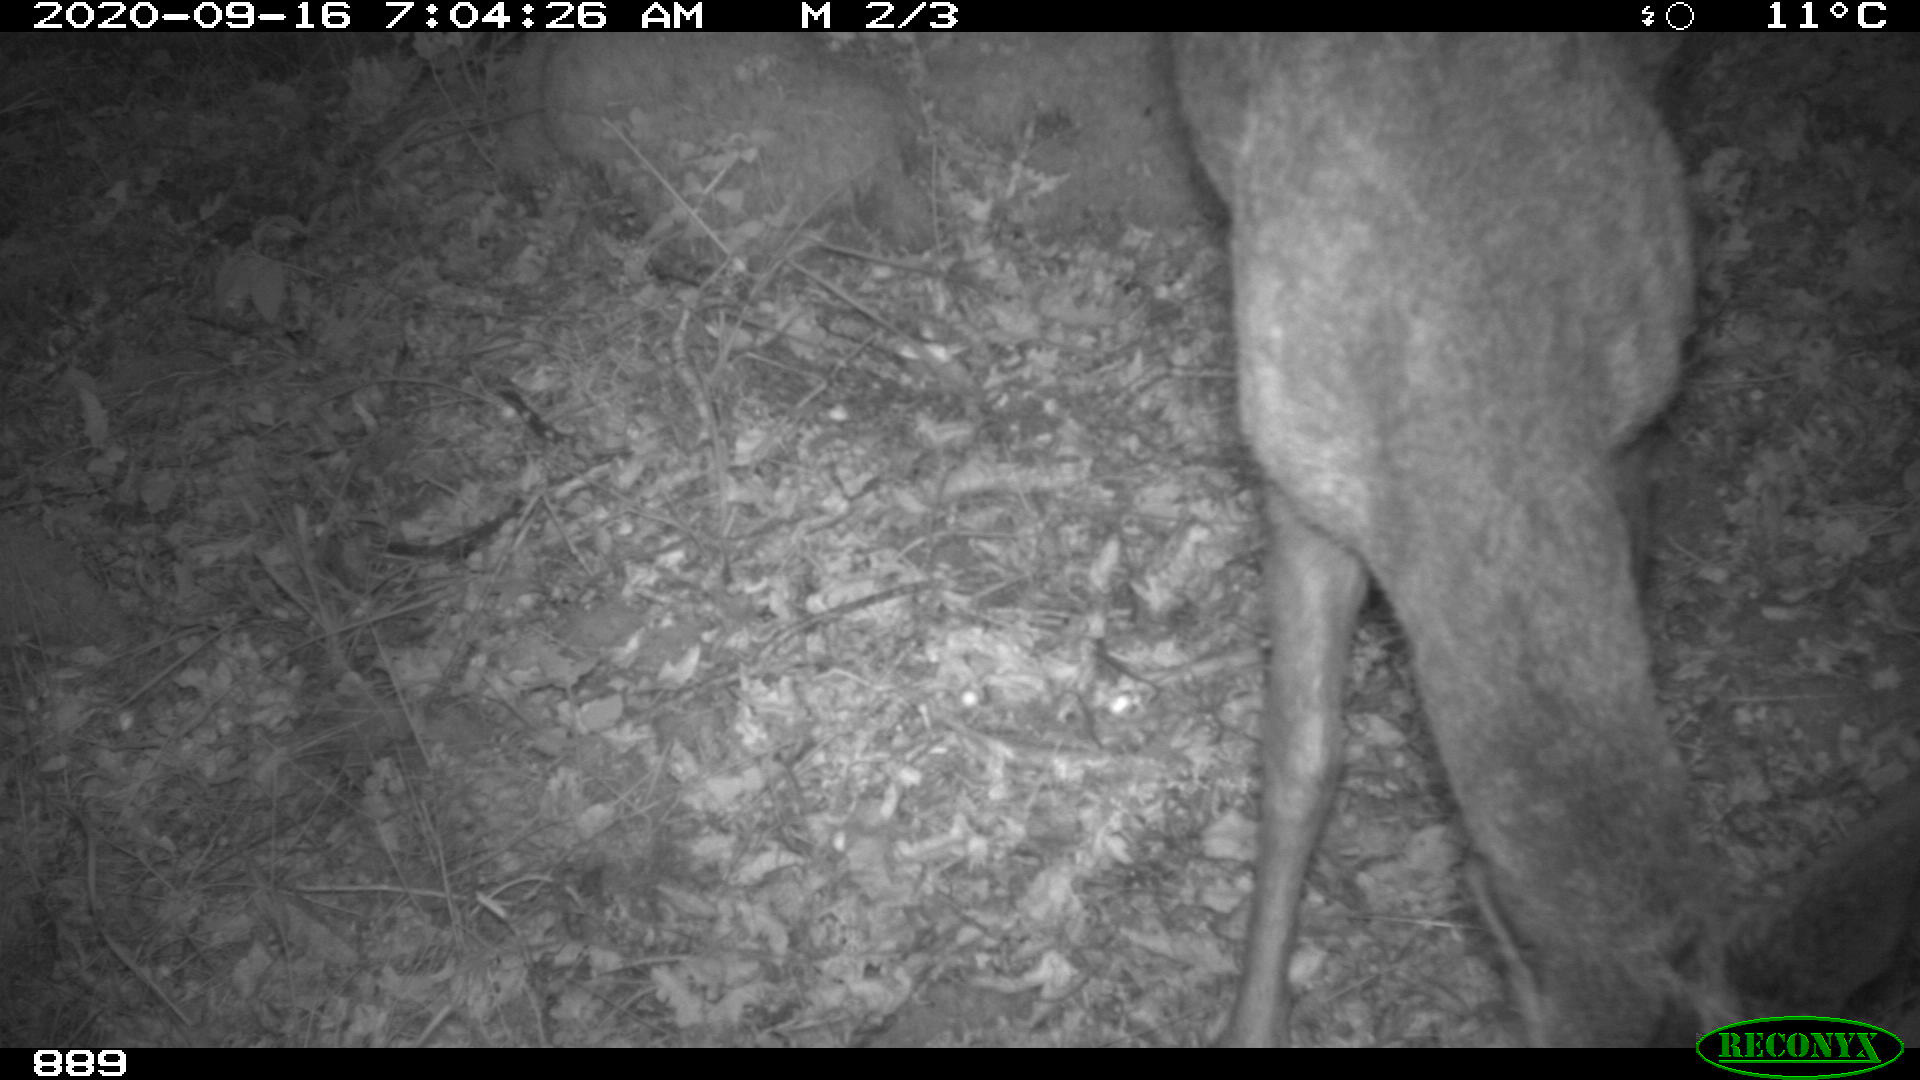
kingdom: Animalia
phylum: Chordata
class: Mammalia
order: Artiodactyla
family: Cervidae
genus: Capreolus
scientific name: Capreolus capreolus
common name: Western roe deer
